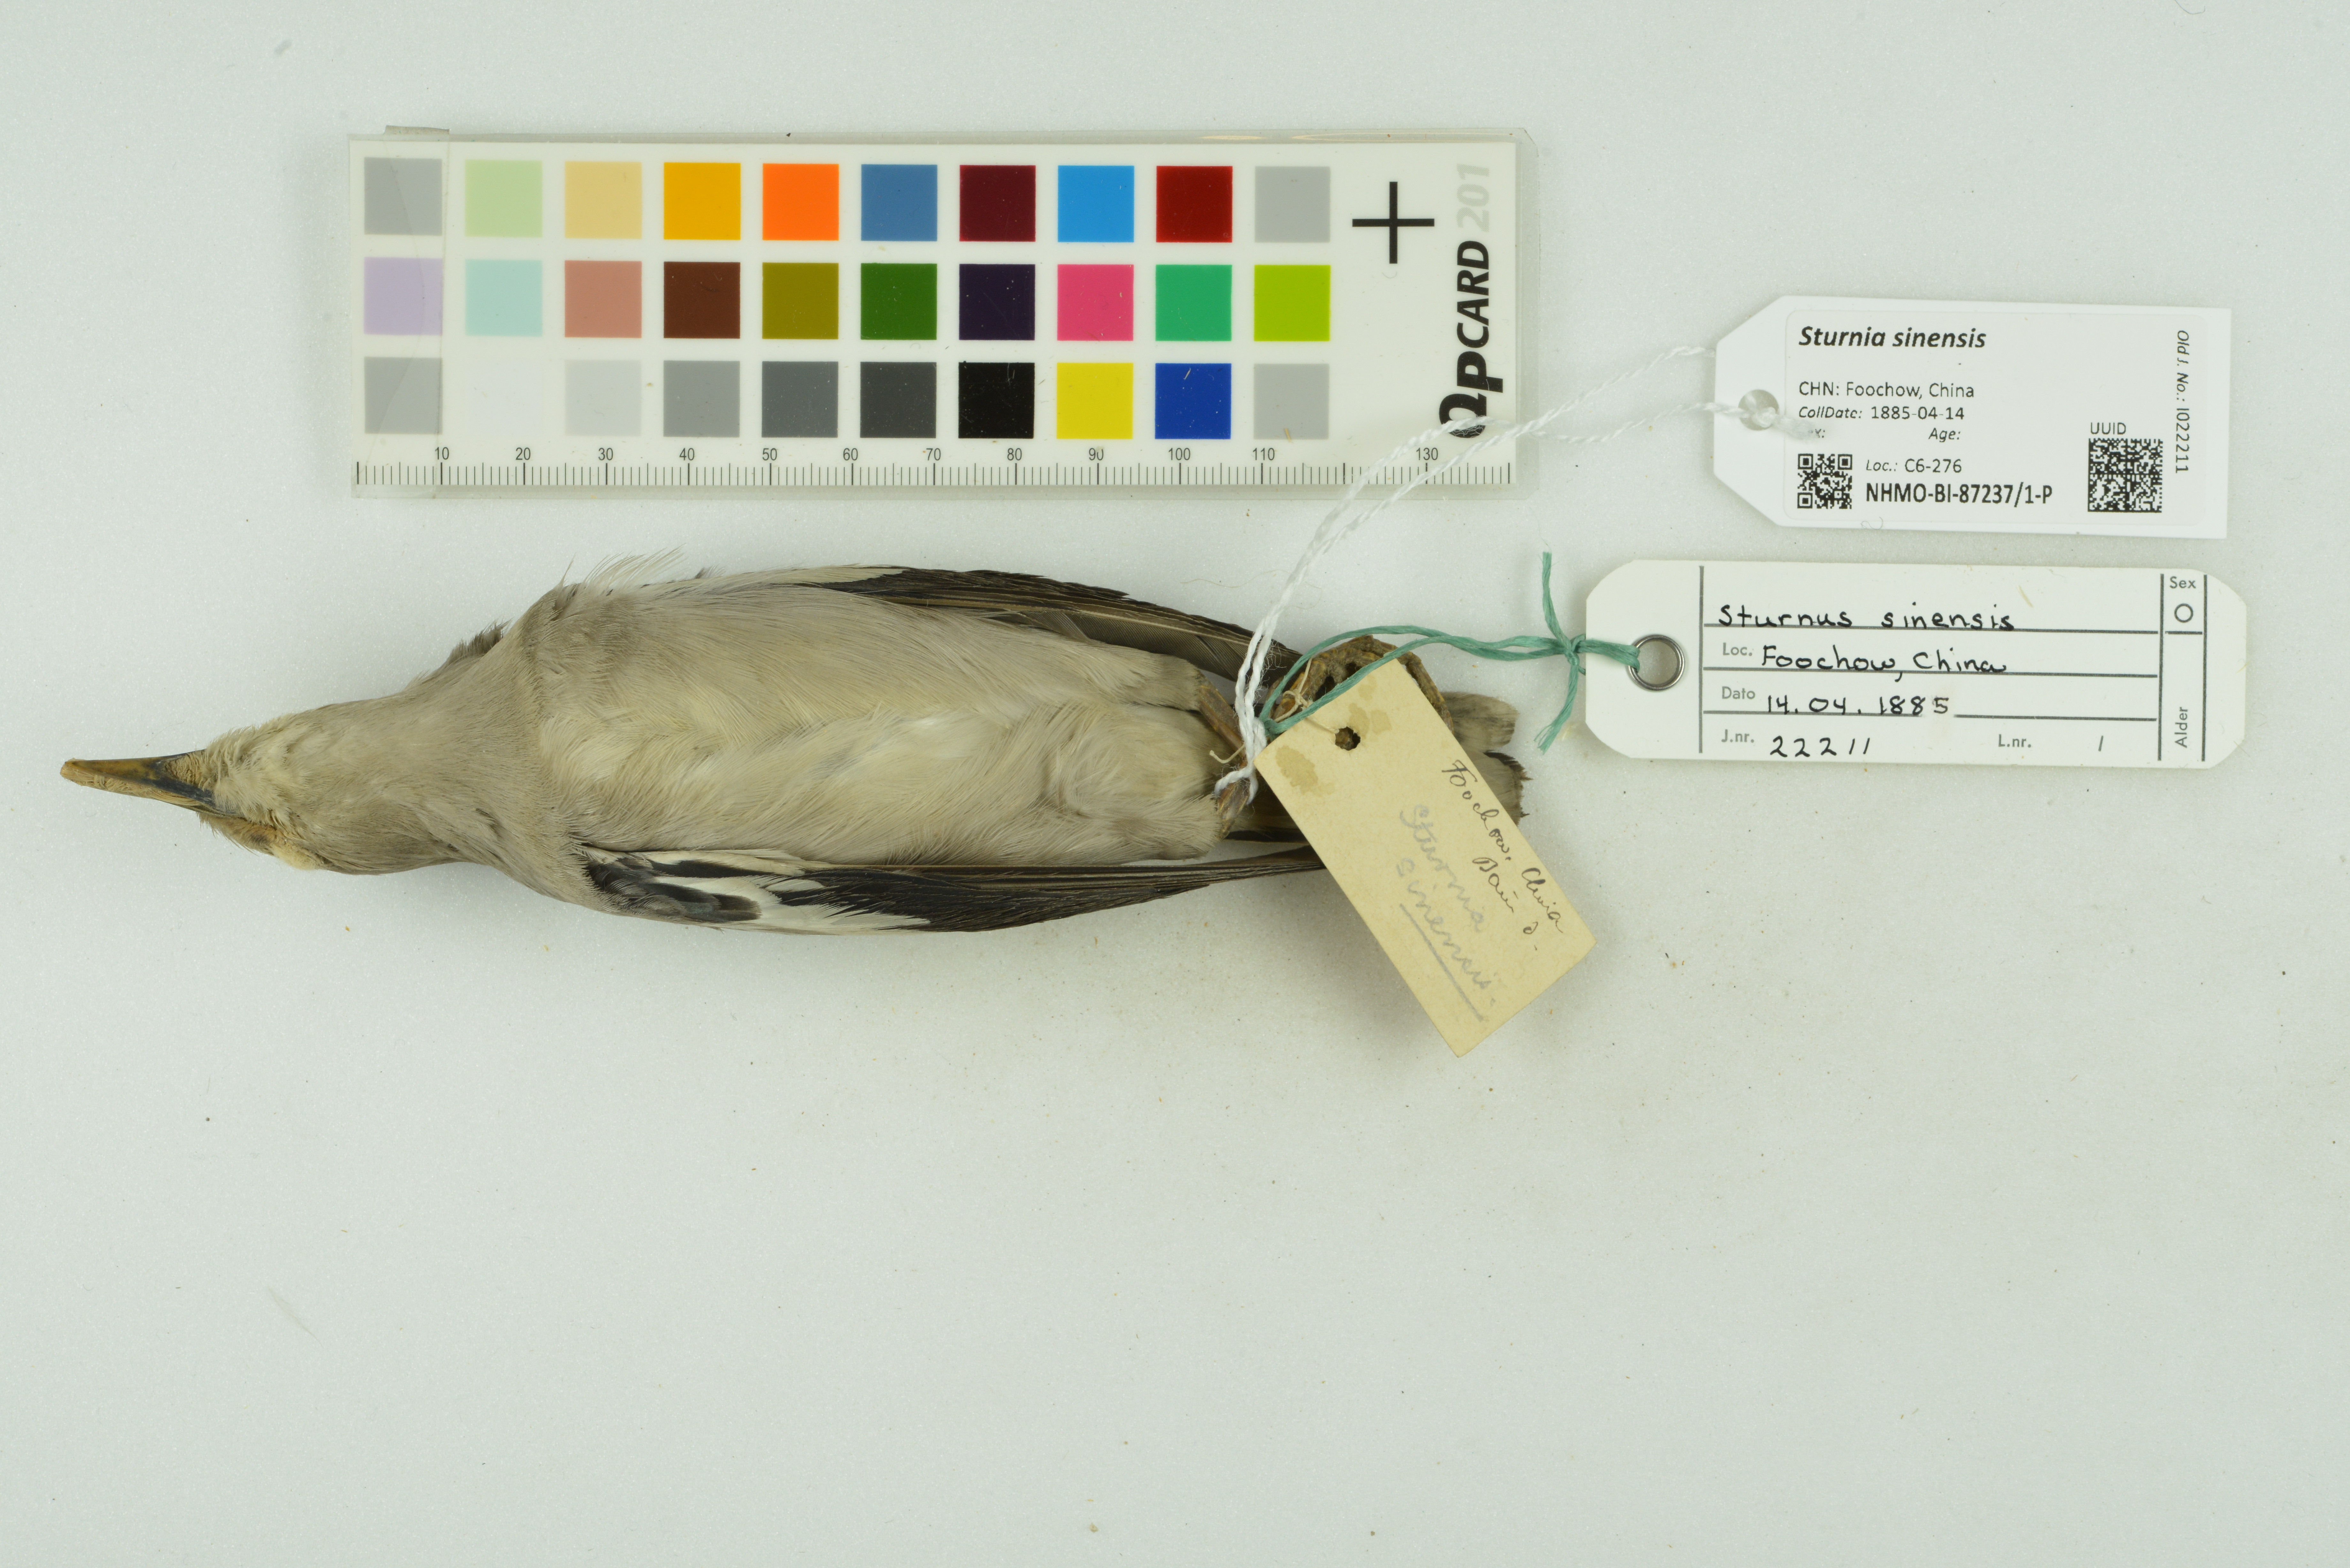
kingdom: Animalia
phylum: Chordata
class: Aves
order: Passeriformes
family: Sturnidae
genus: Sturnia
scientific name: Sturnia sinensis
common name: White-shouldered starling
